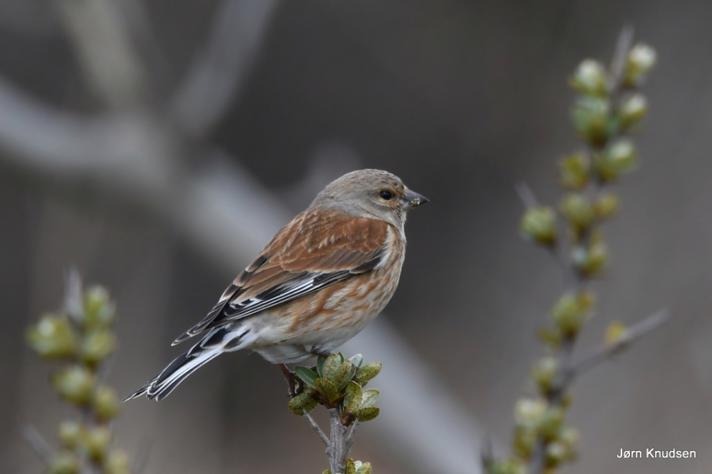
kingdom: Animalia
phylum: Chordata
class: Aves
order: Passeriformes
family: Fringillidae
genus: Linaria
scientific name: Linaria cannabina
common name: Tornirisk
